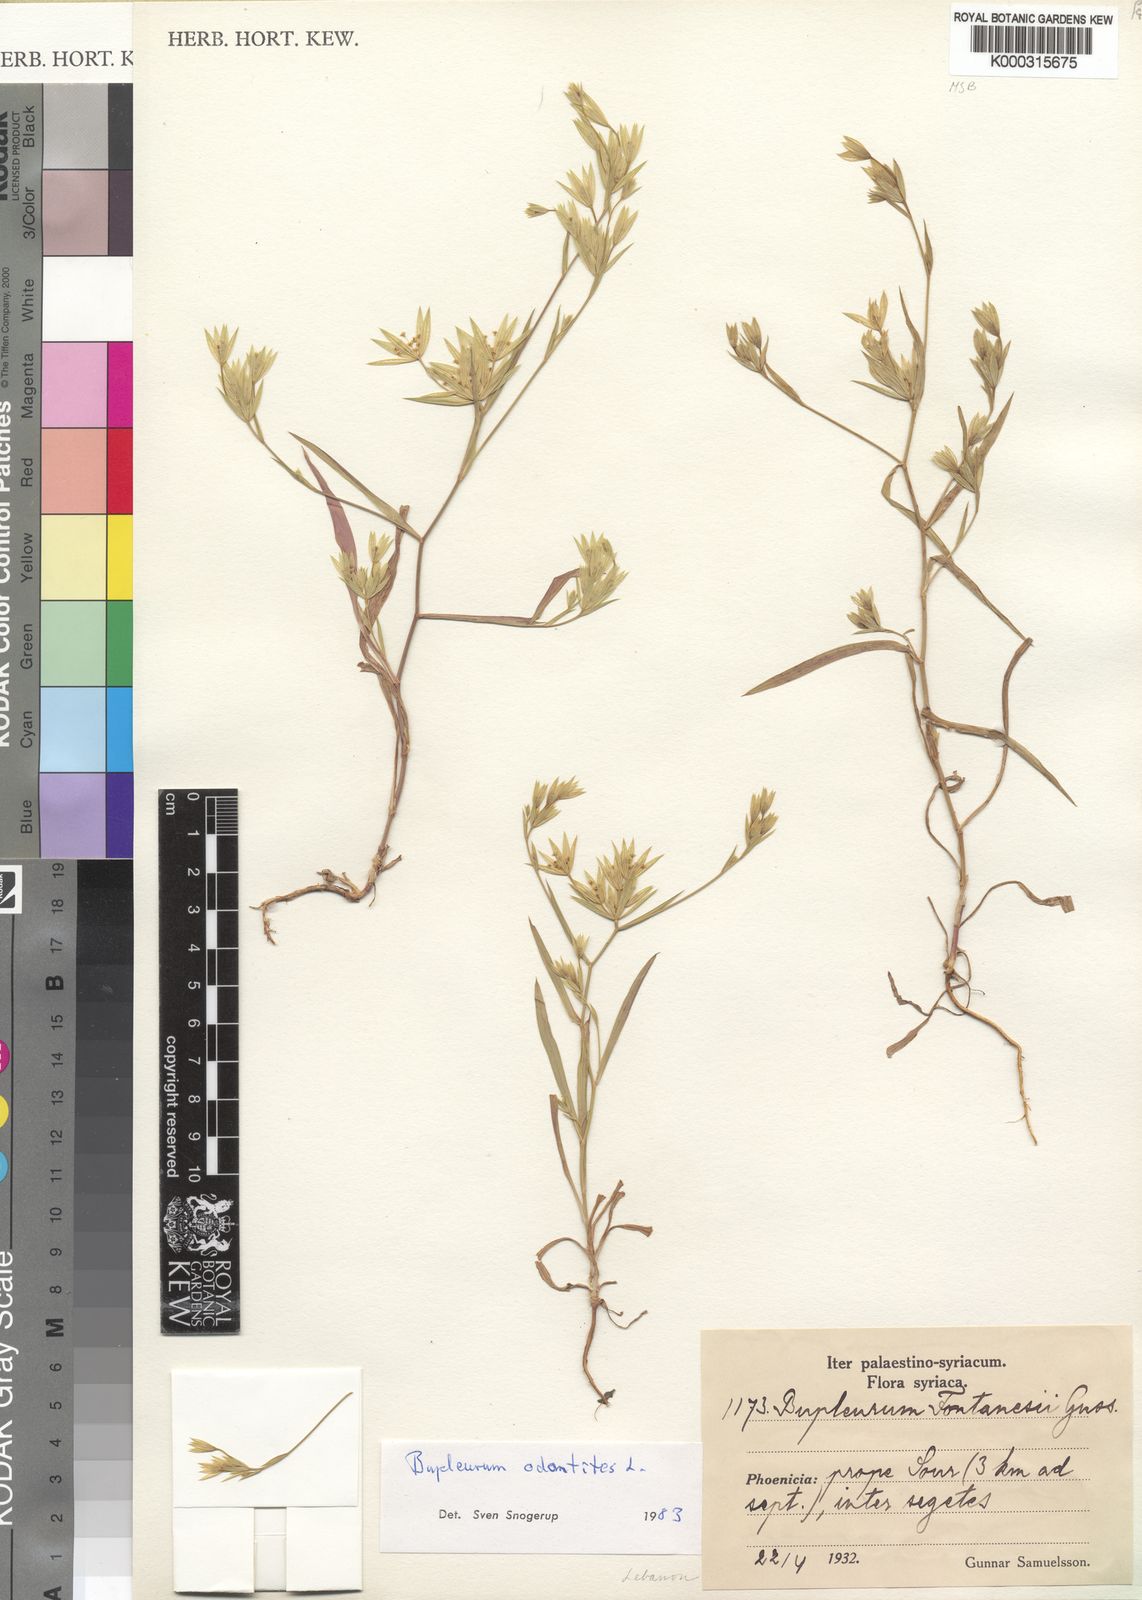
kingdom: Plantae
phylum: Tracheophyta
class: Magnoliopsida
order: Apiales
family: Apiaceae
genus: Bupleurum
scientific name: Bupleurum odontites
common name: Narrowleaf thorow wax
